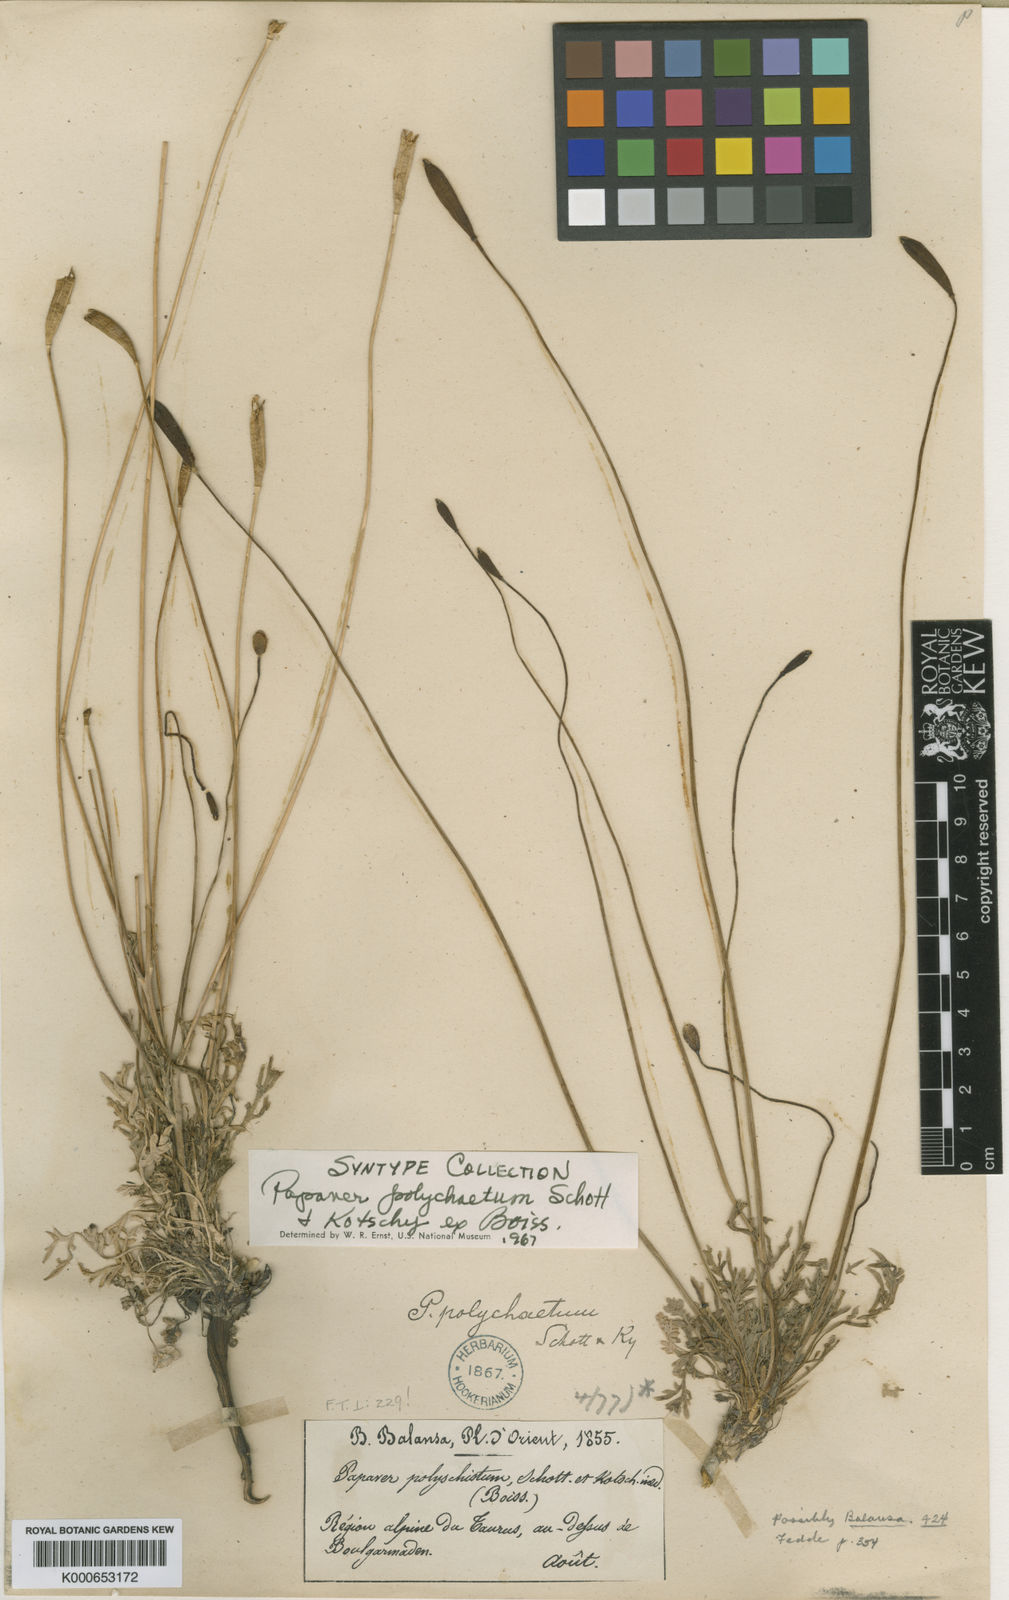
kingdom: Plantae
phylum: Tracheophyta
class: Magnoliopsida
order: Ranunculales
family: Papaveraceae
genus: Papaver
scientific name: Papaver libanoticum
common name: Lebanon poppy
